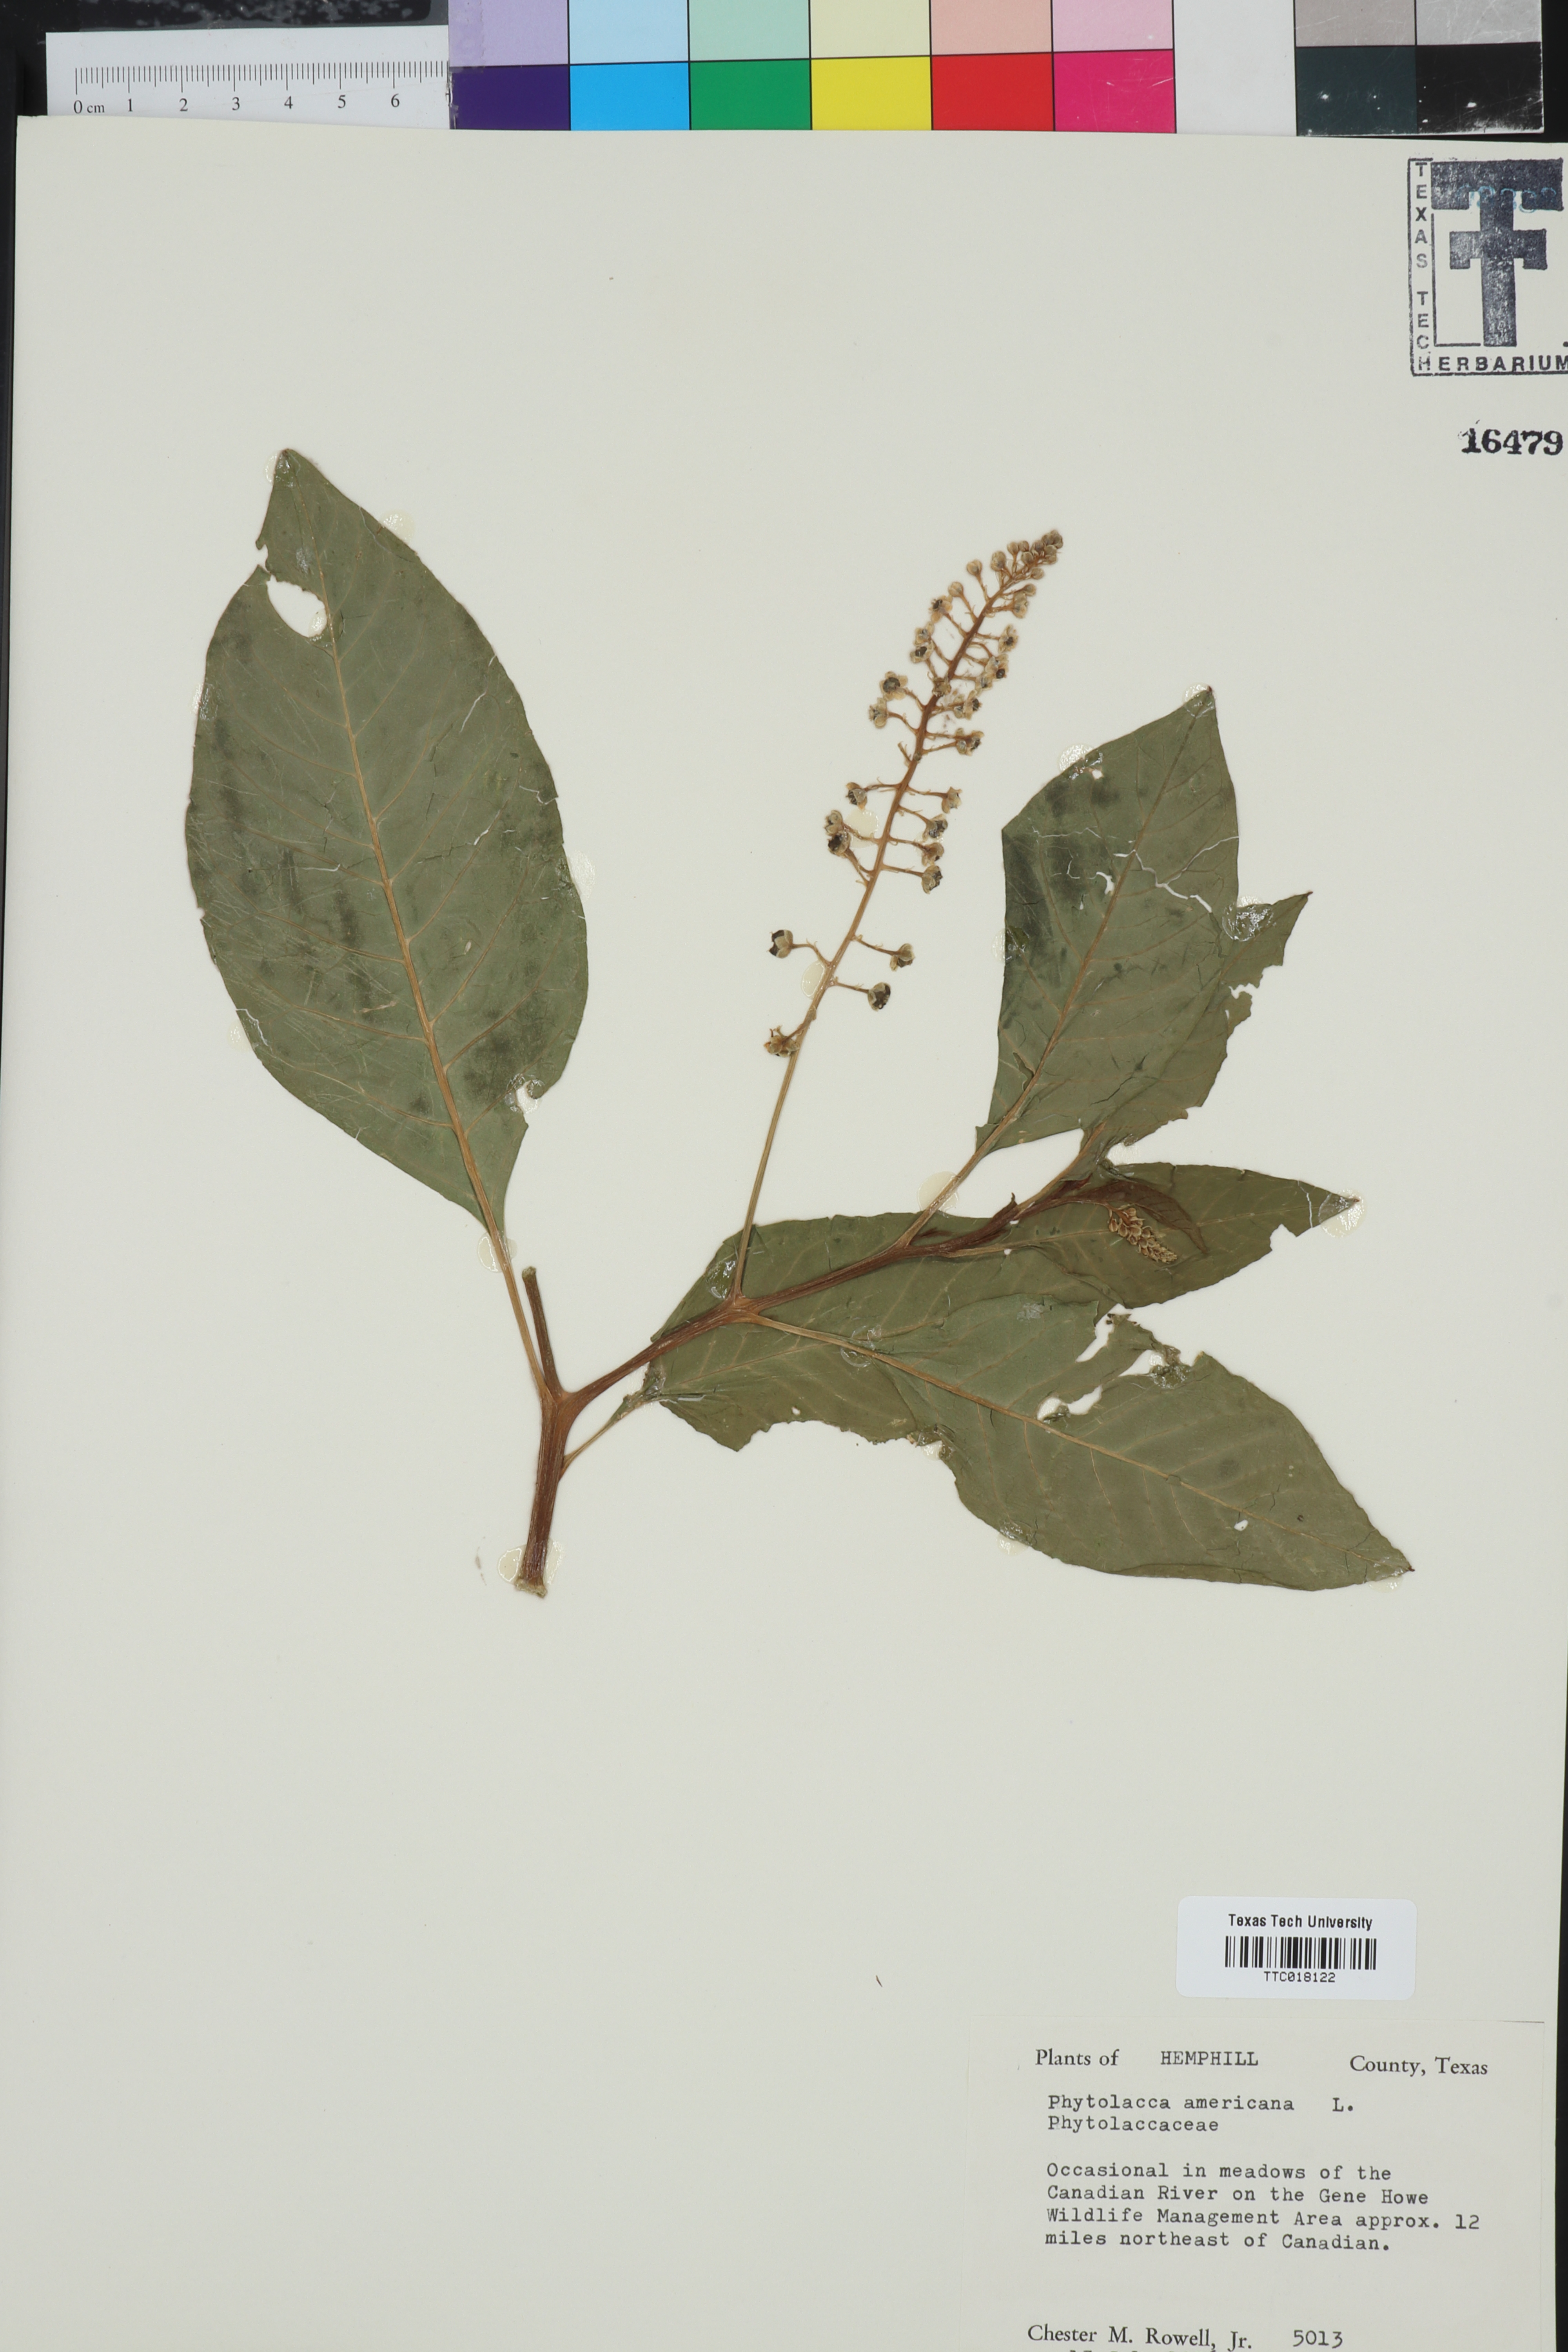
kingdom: Plantae
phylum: Tracheophyta
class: Magnoliopsida
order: Caryophyllales
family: Phytolaccaceae
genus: Phytolacca
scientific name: Phytolacca americana
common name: American pokeweed
